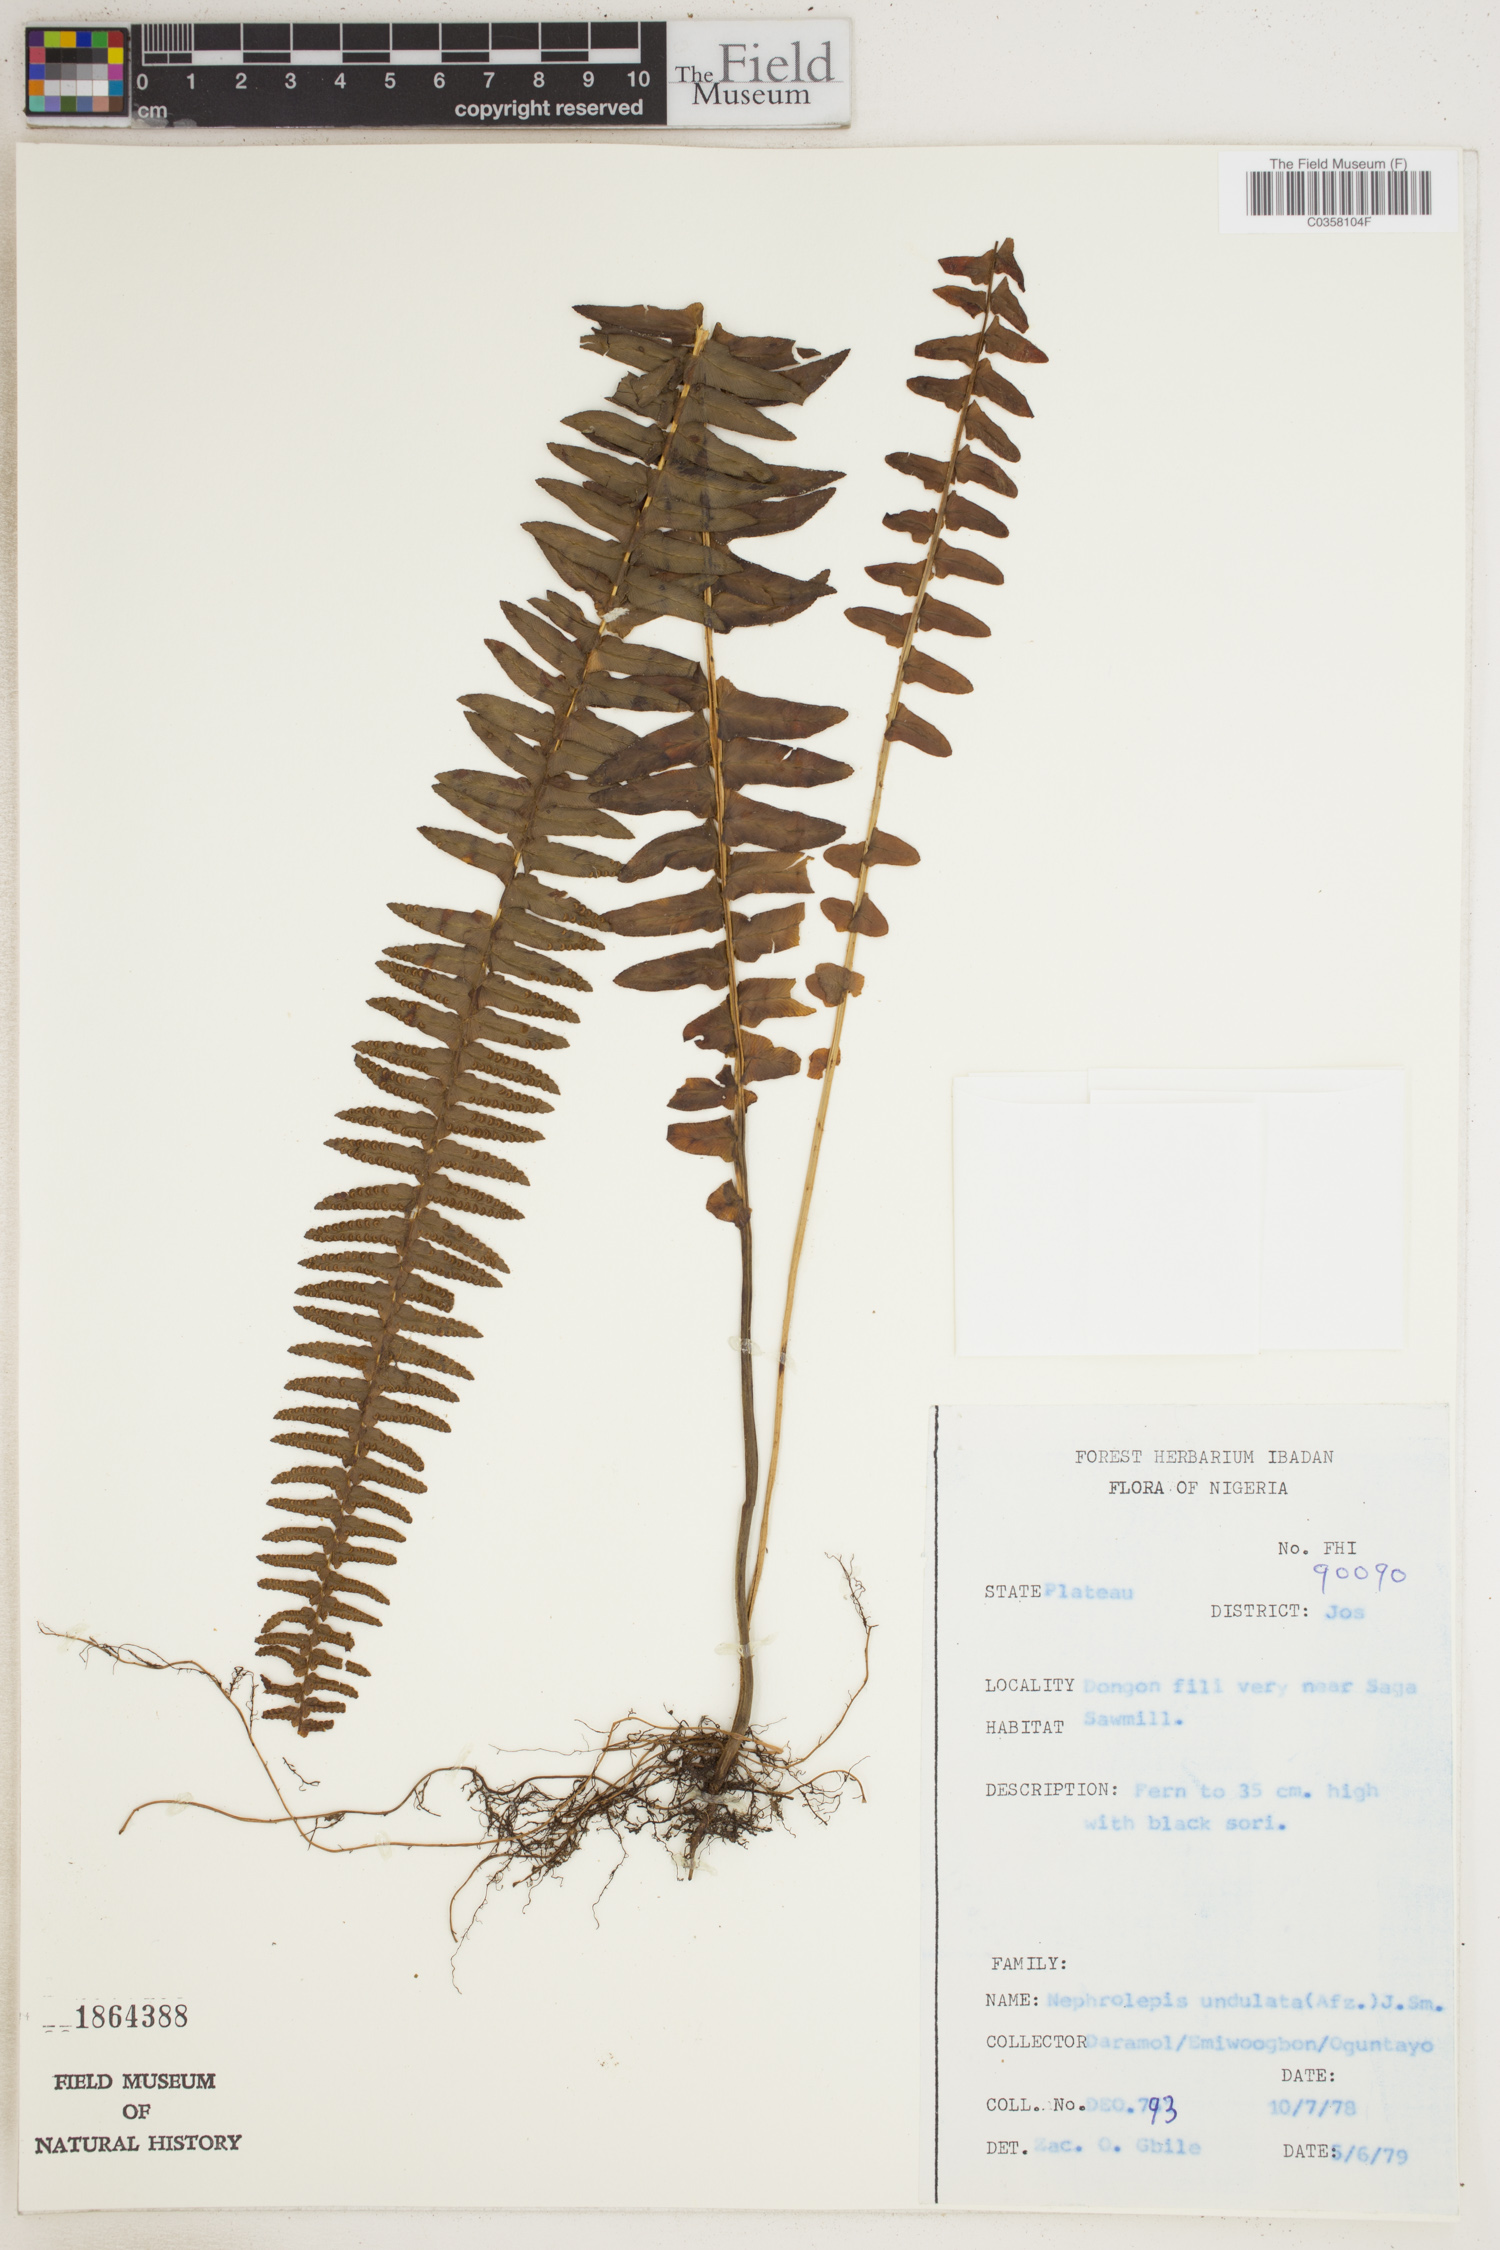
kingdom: Plantae
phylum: Tracheophyta
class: Polypodiopsida
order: Polypodiales
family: Nephrolepidaceae
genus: Nephrolepis
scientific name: Nephrolepis undulata
